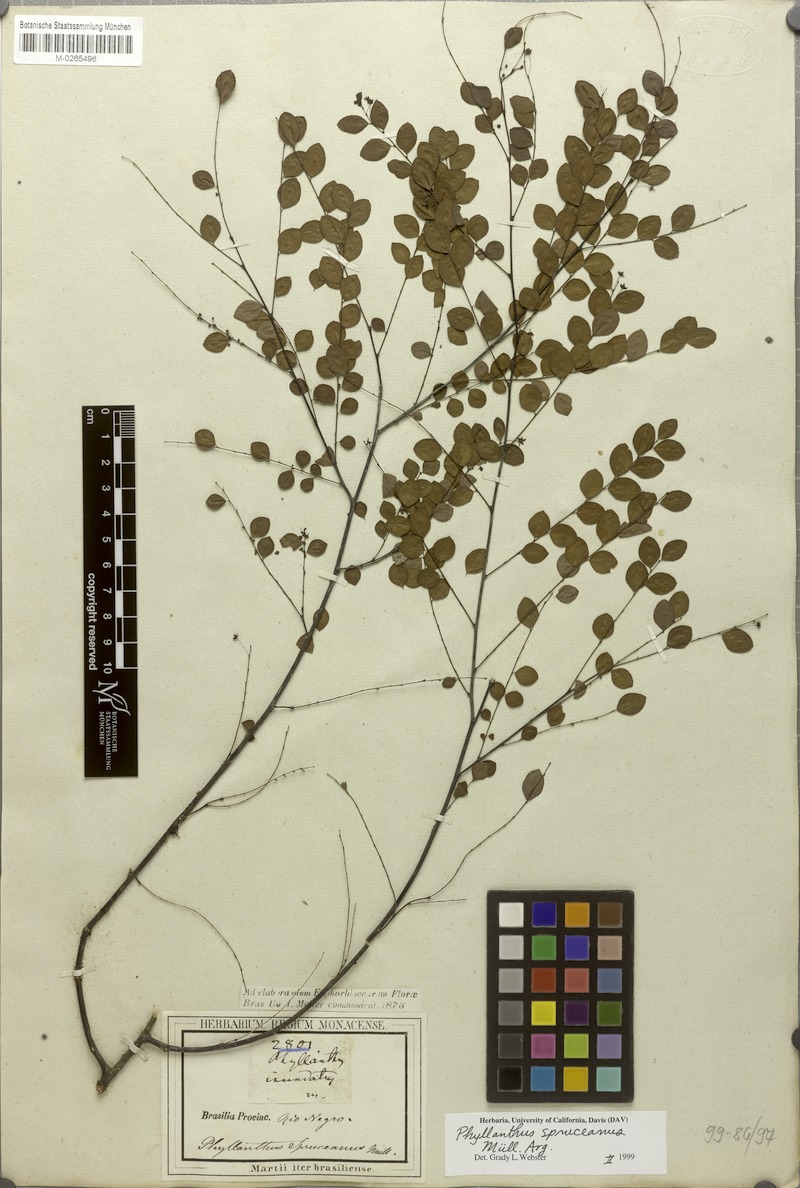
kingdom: Plantae
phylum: Tracheophyta
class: Magnoliopsida
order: Malpighiales
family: Phyllanthaceae
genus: Phyllanthus
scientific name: Phyllanthus spruceanus
